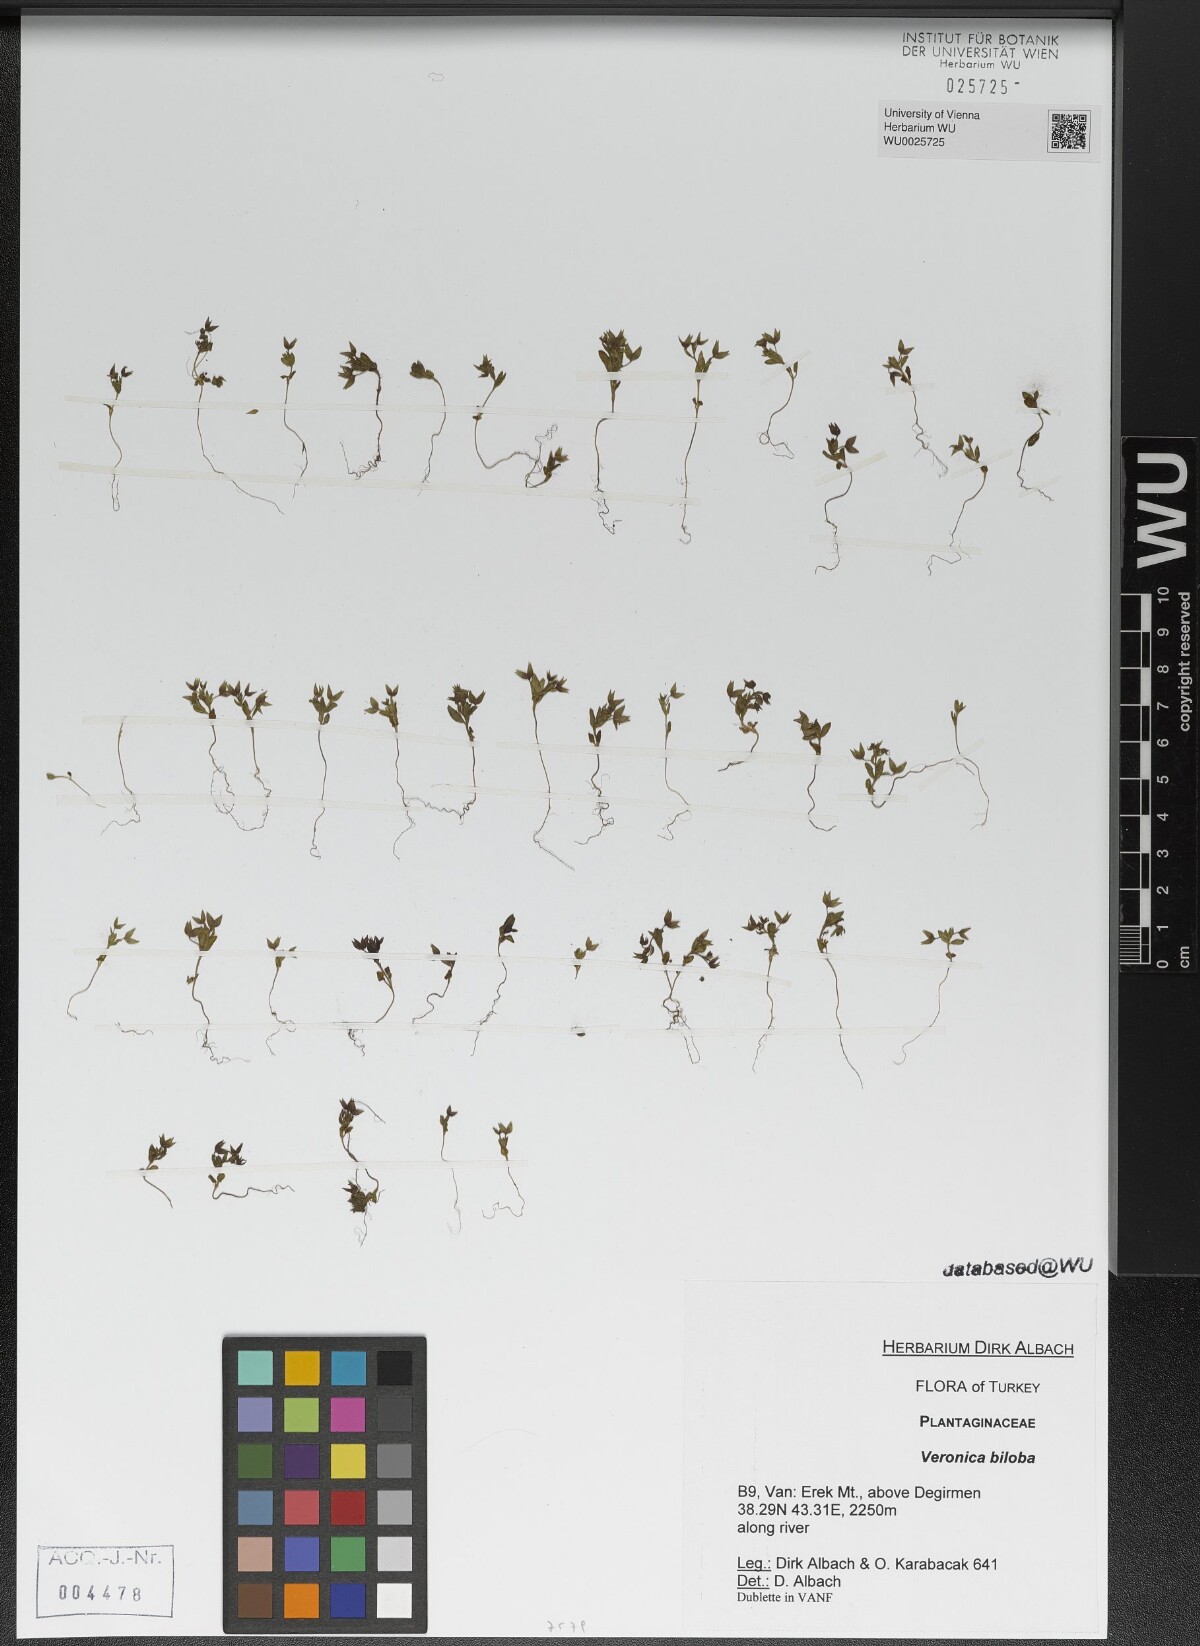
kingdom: Plantae
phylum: Tracheophyta
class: Magnoliopsida
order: Lamiales
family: Plantaginaceae
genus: Veronica
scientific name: Veronica biloba
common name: Twolobe speedwell
